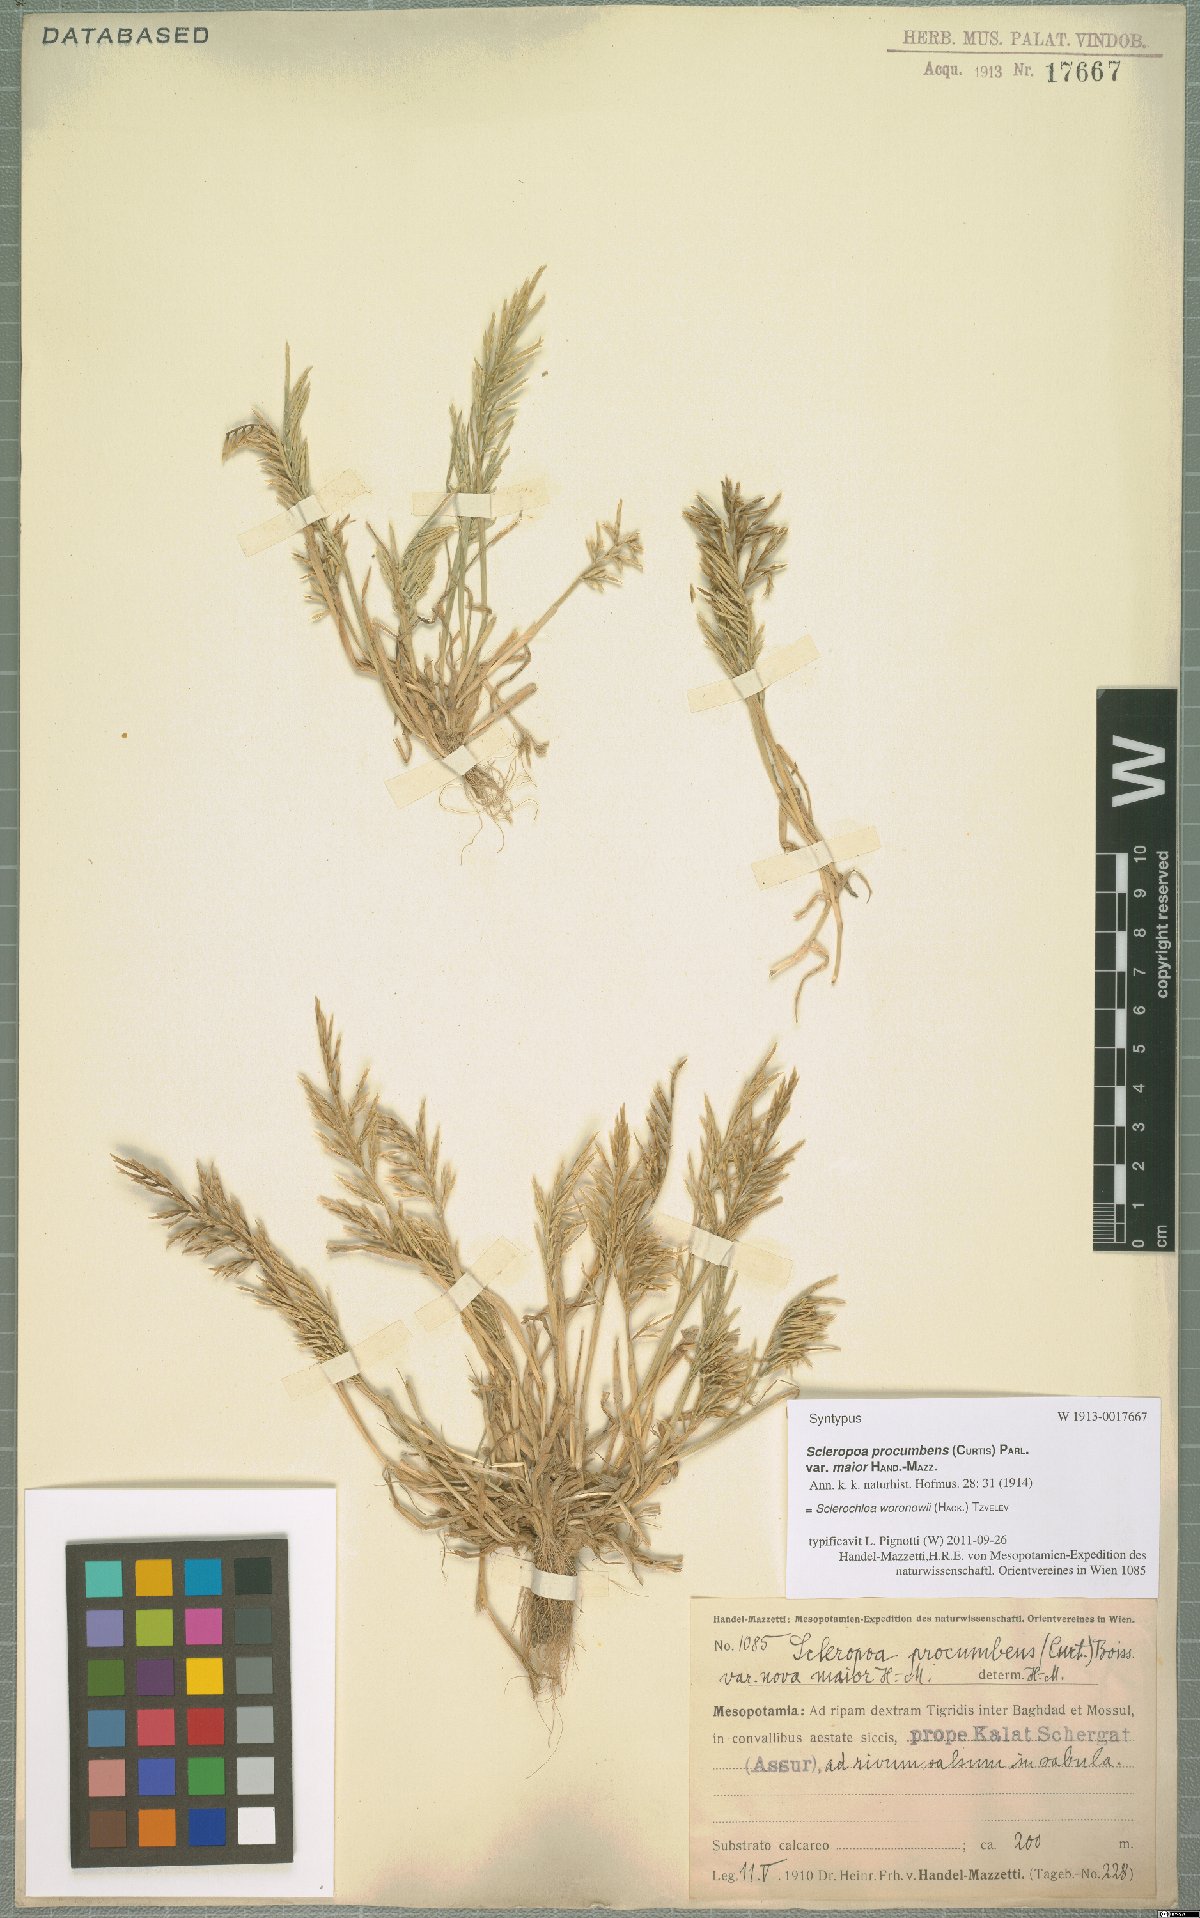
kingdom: Plantae
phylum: Tracheophyta
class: Liliopsida
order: Poales
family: Poaceae
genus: Sclerochloa
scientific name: Sclerochloa woronowii
